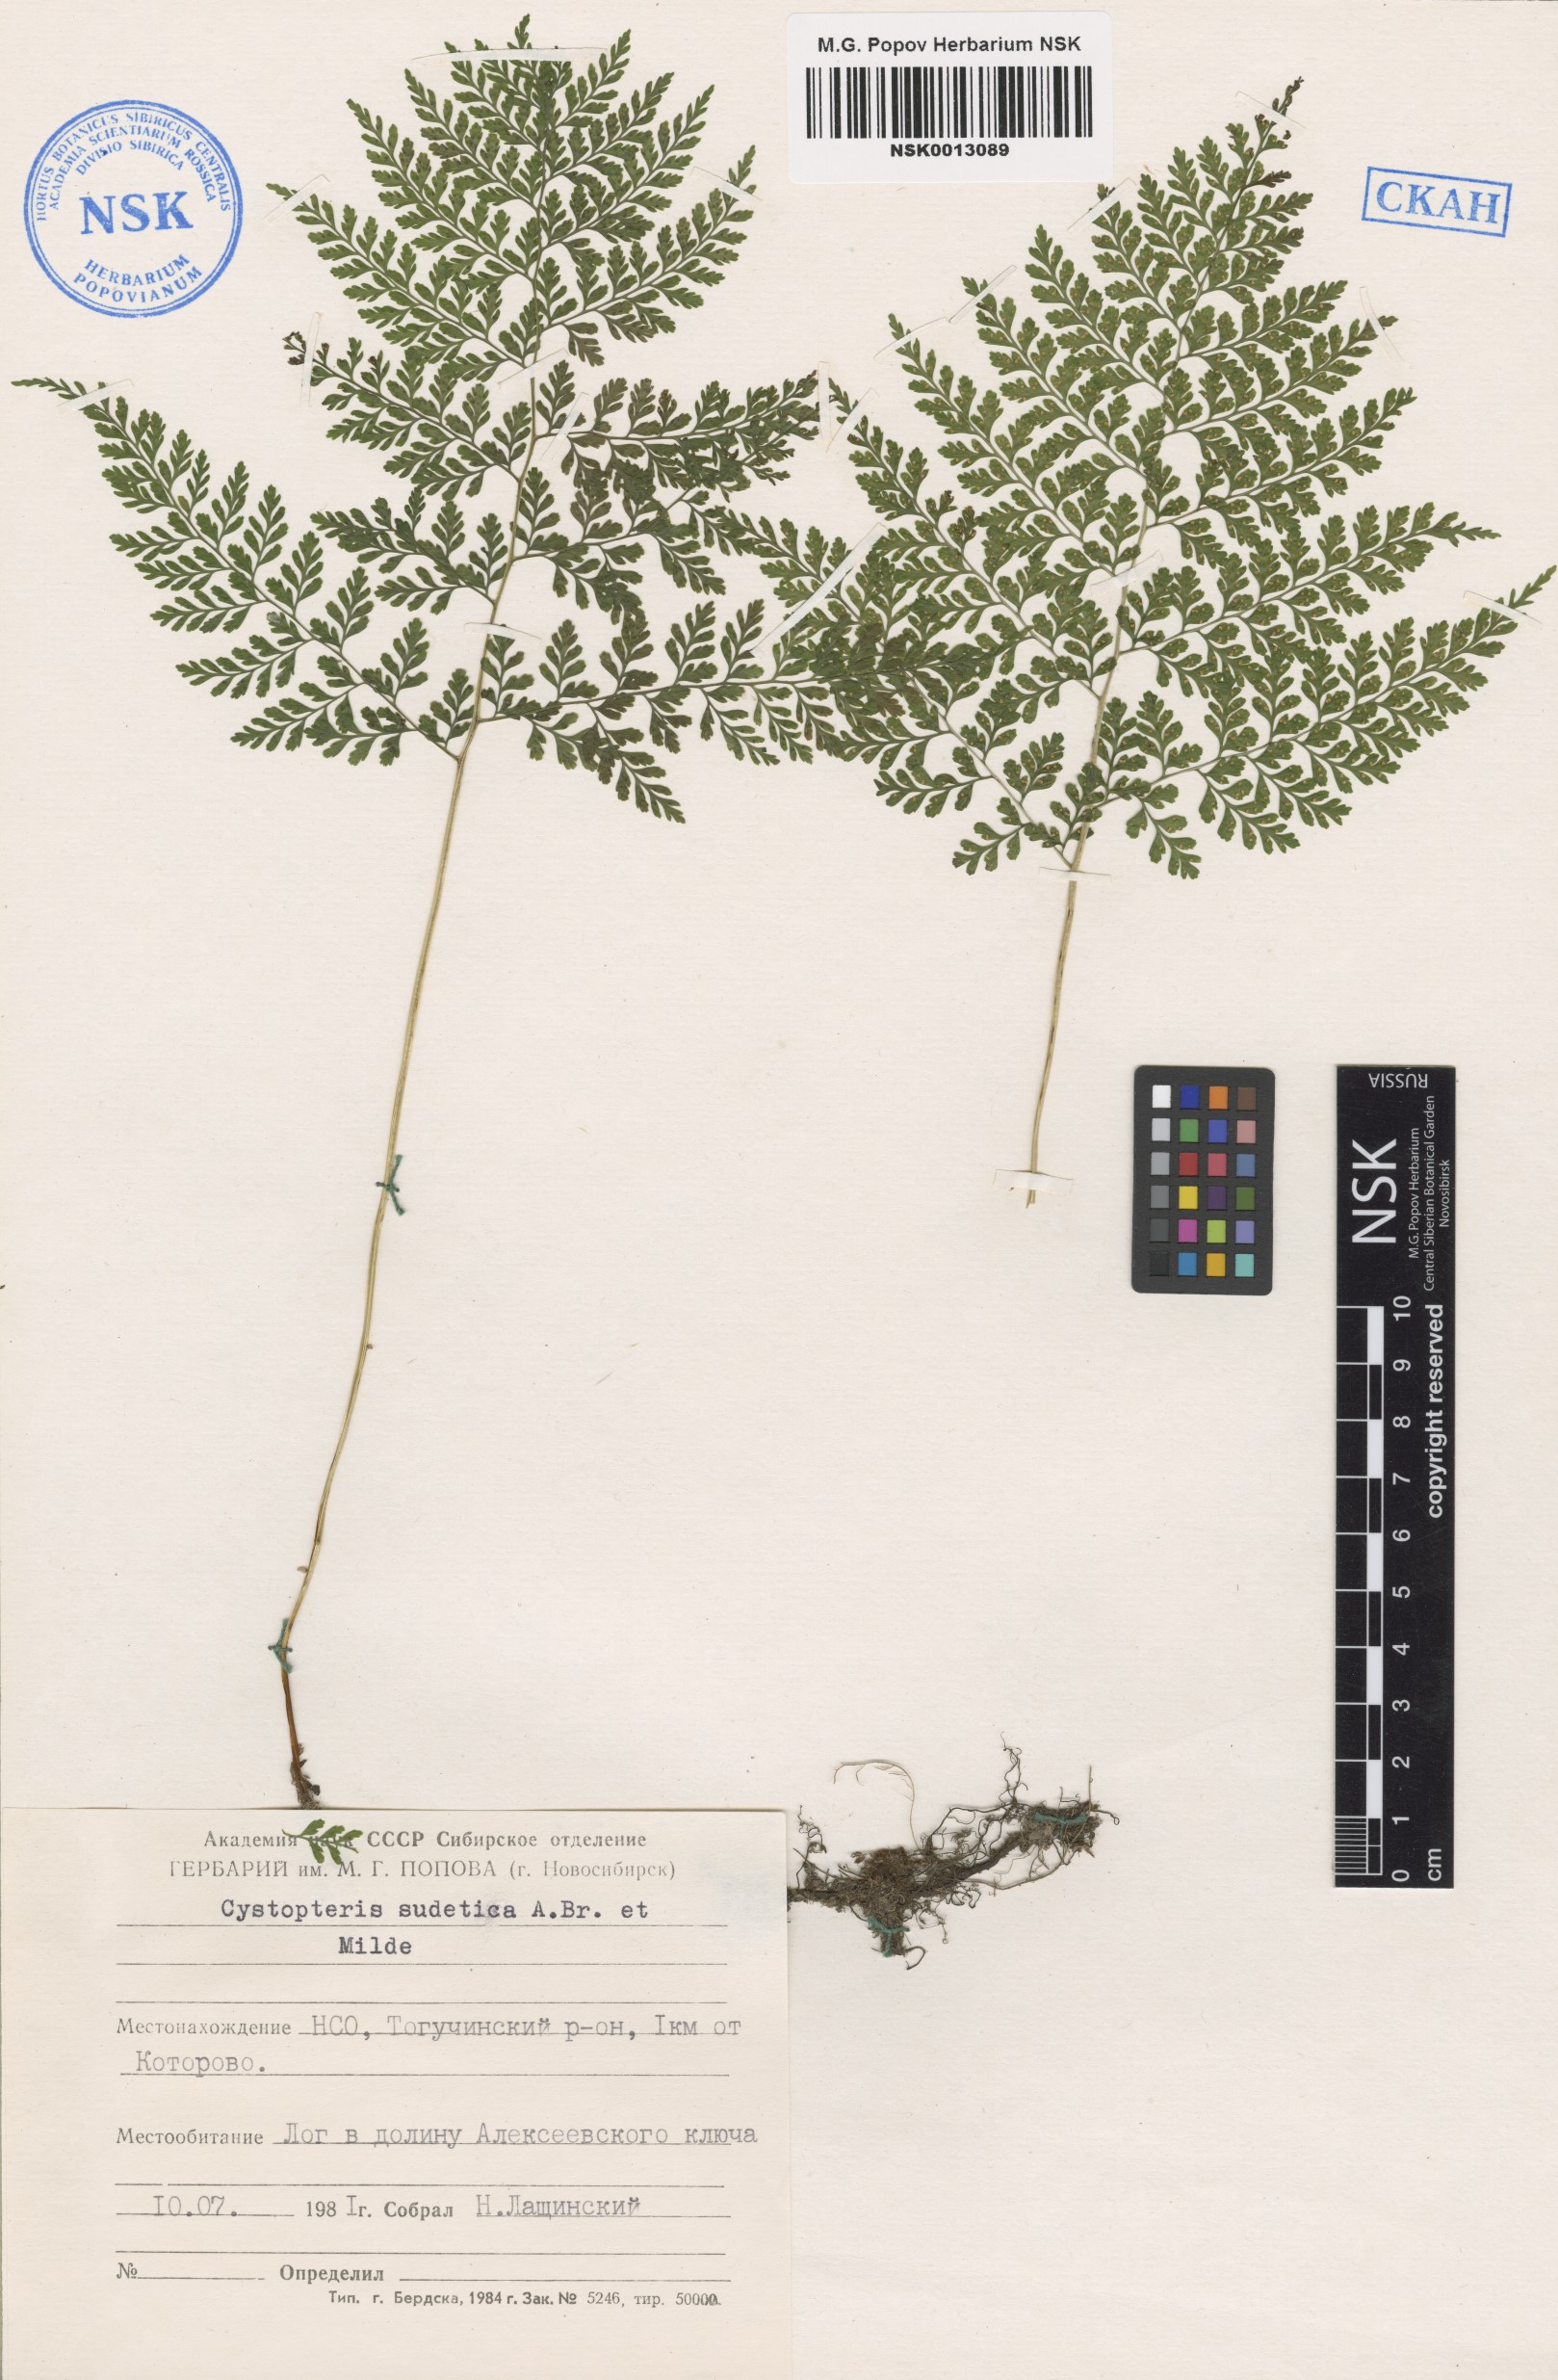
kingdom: Plantae
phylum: Tracheophyta
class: Polypodiopsida
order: Polypodiales
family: Cystopteridaceae
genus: Cystopteris
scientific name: Cystopteris sudetica
